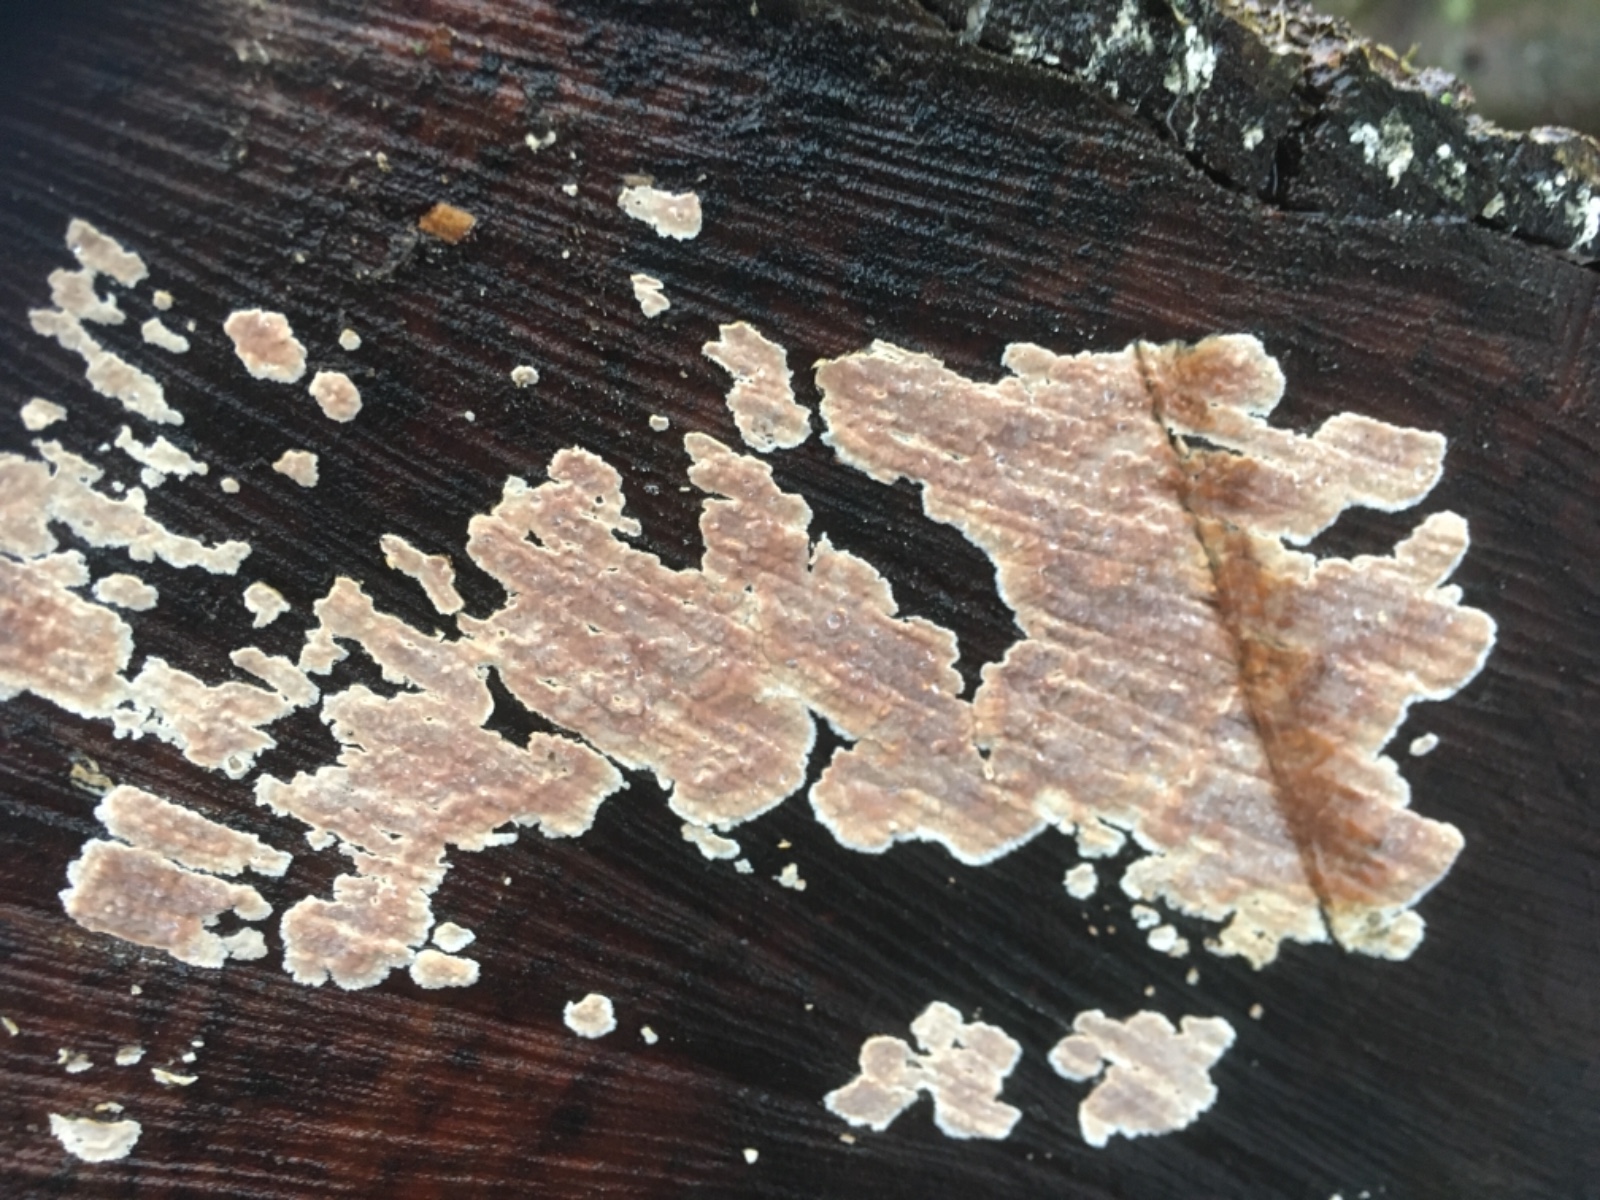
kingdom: Fungi
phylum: Basidiomycota
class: Agaricomycetes
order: Agaricales
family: Physalacriaceae
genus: Cylindrobasidium
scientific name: Cylindrobasidium evolvens
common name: sprækkehinde
